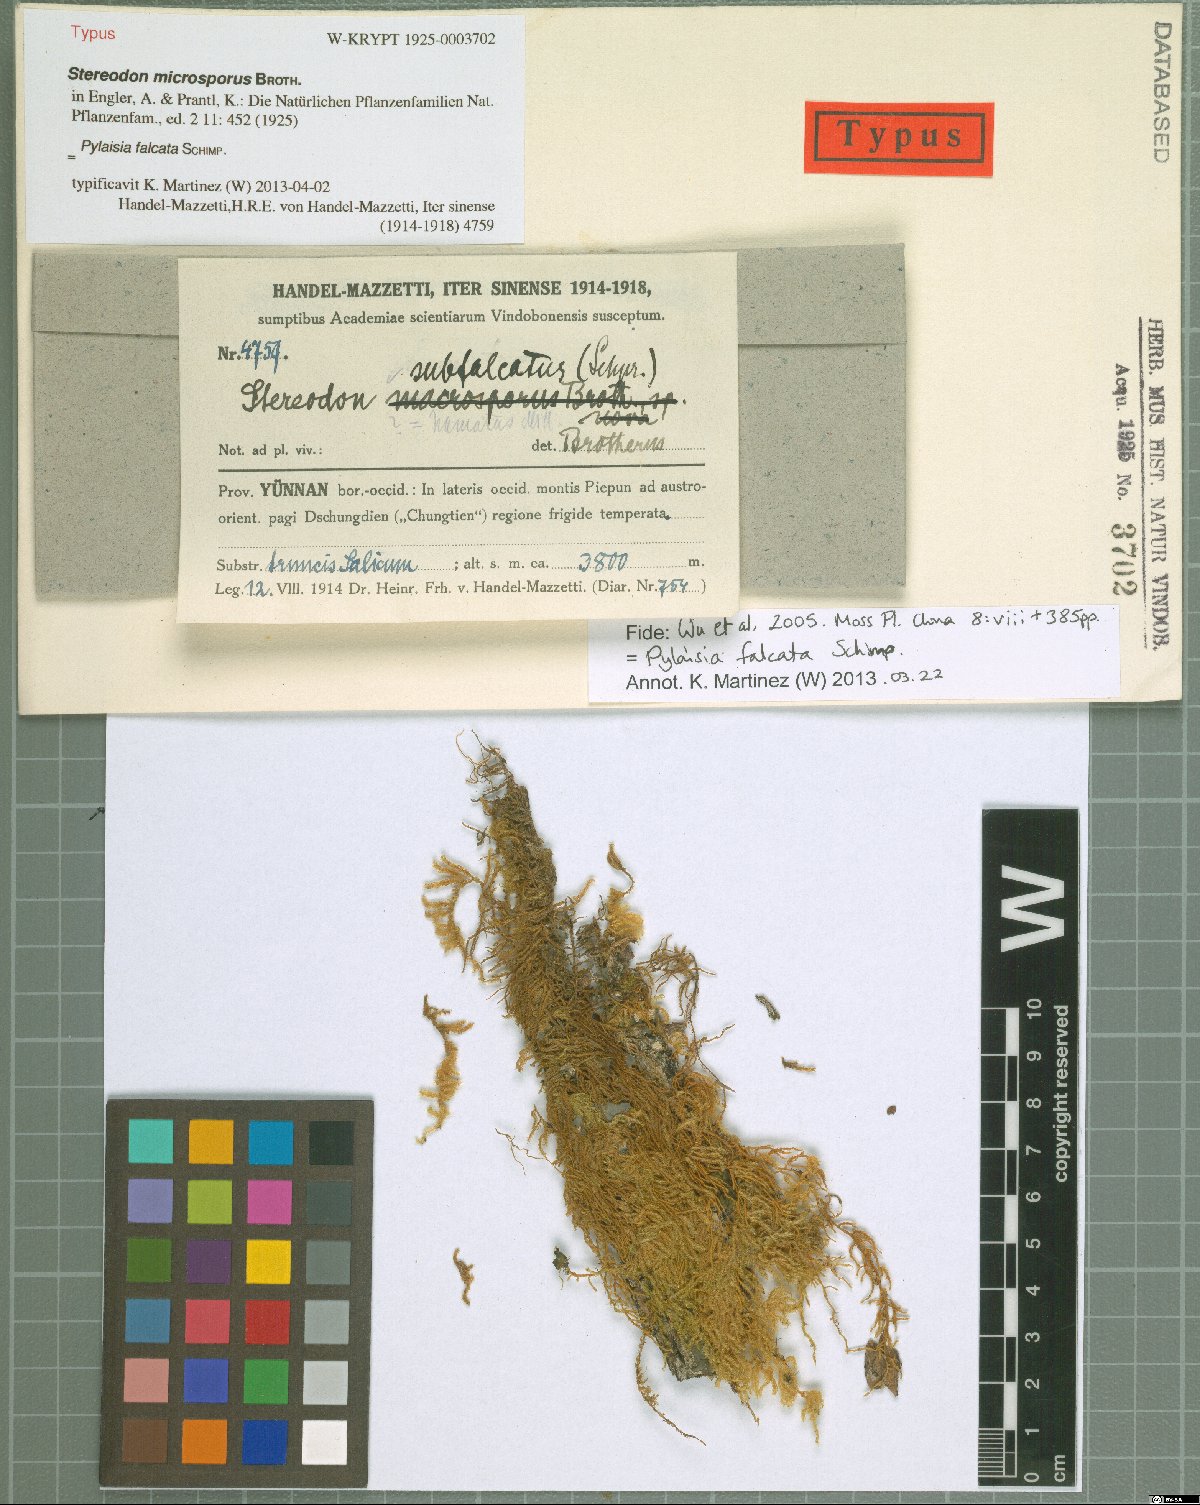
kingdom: Plantae
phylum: Bryophyta
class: Bryopsida
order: Hypnales
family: Pylaisiaceae
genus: Pylaisia
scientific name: Pylaisia falcata
